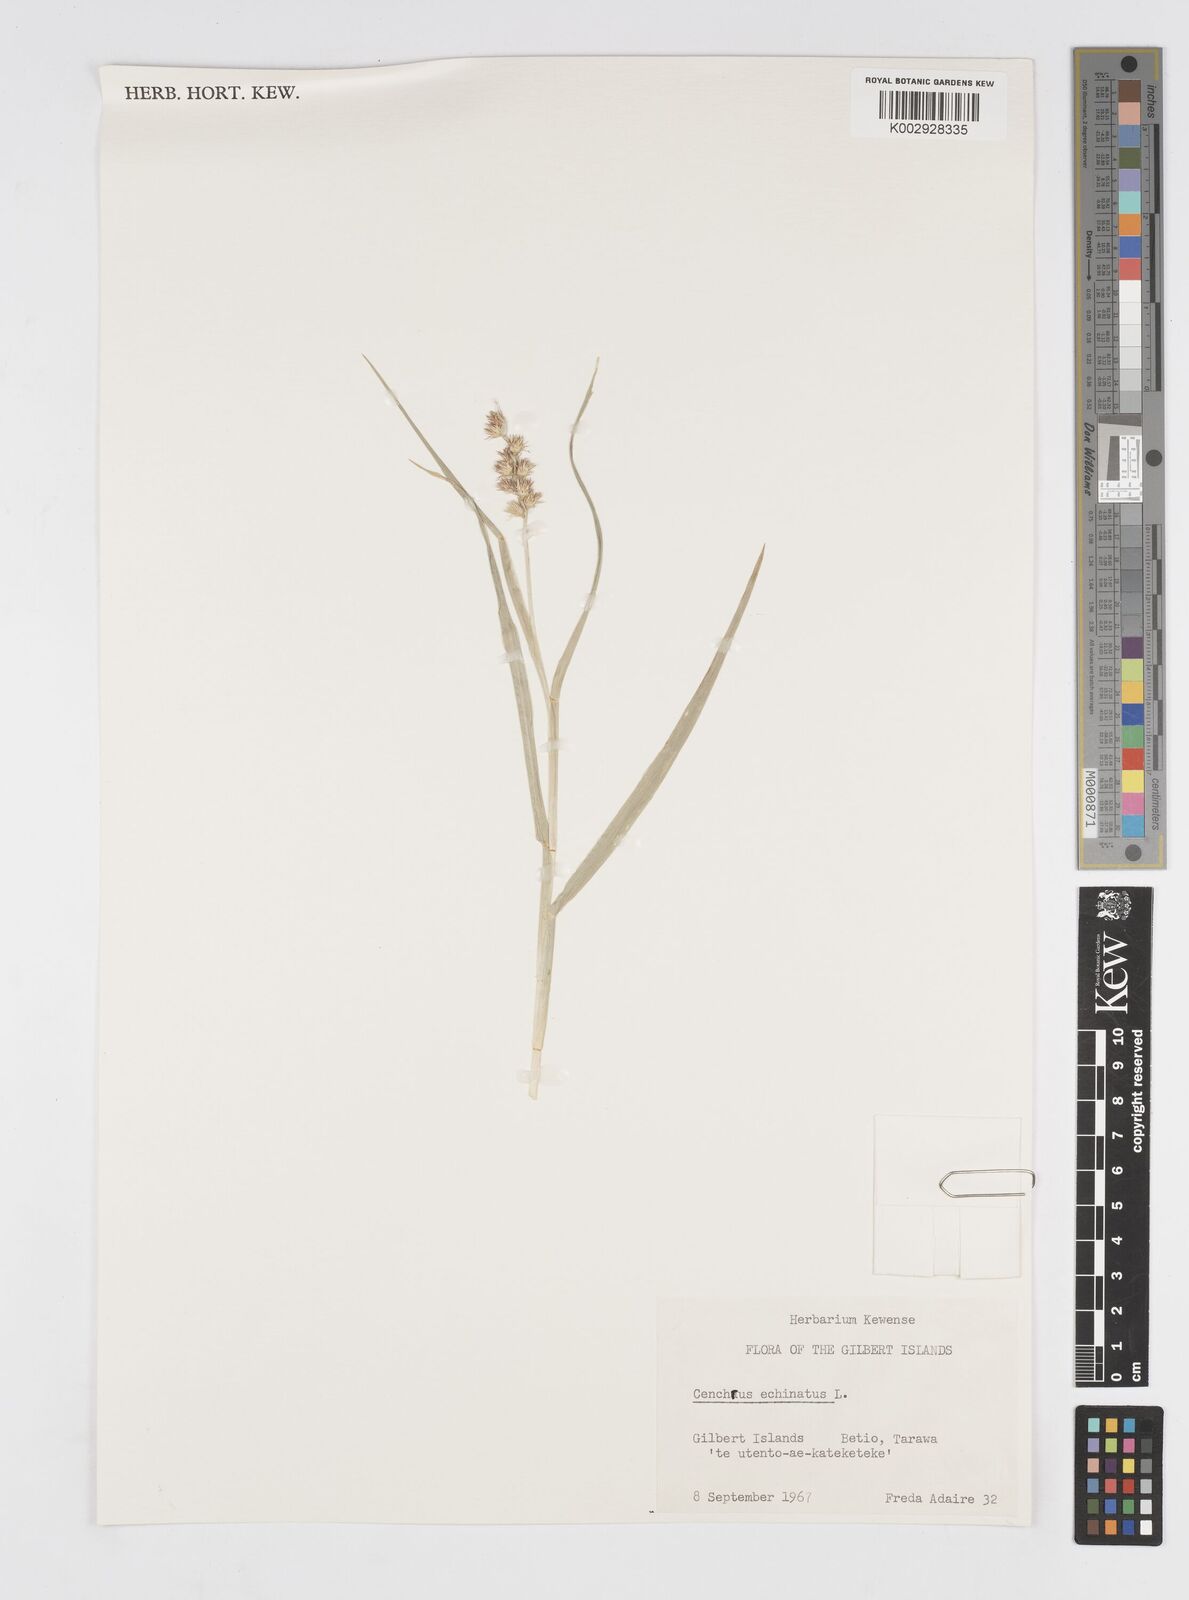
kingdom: Plantae
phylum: Tracheophyta
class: Liliopsida
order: Poales
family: Poaceae
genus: Cenchrus
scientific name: Cenchrus echinatus
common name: Southern sandbur
